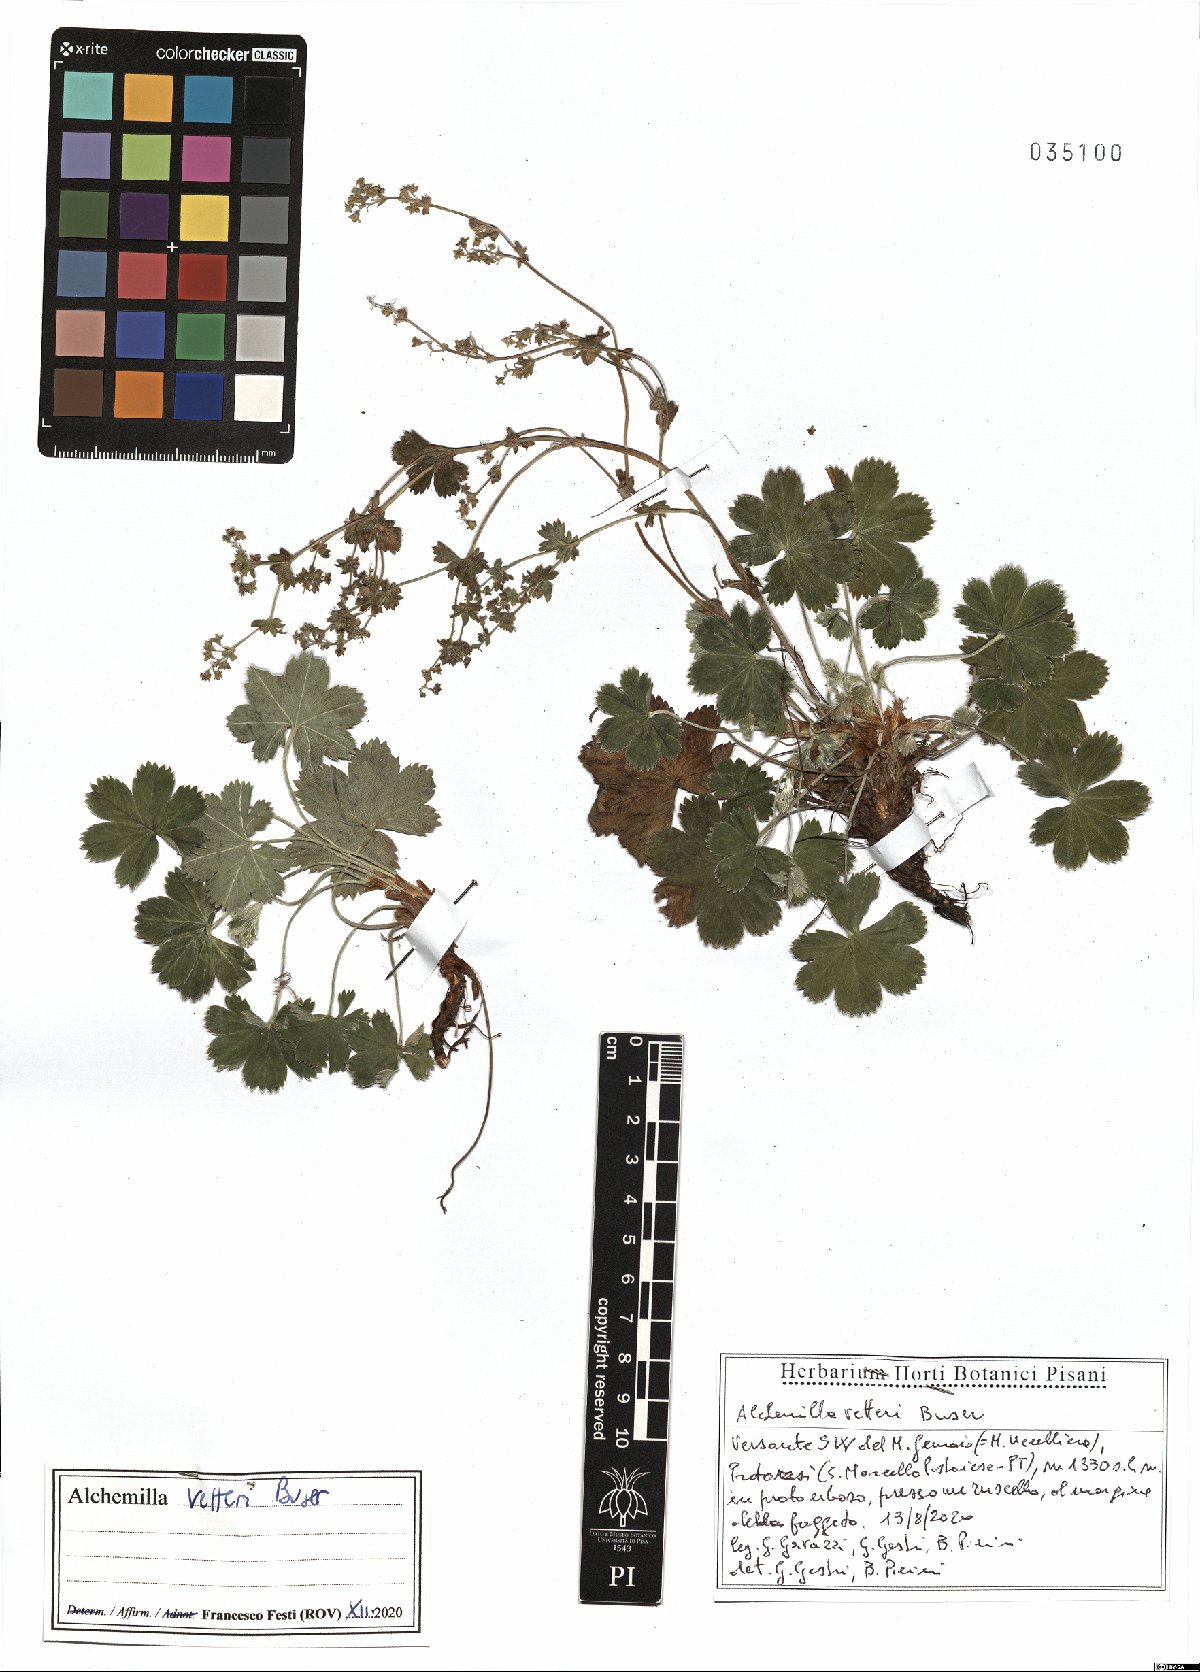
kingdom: Plantae
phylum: Tracheophyta
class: Magnoliopsida
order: Rosales
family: Rosaceae
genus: Alchemilla
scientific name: Alchemilla vetteri
